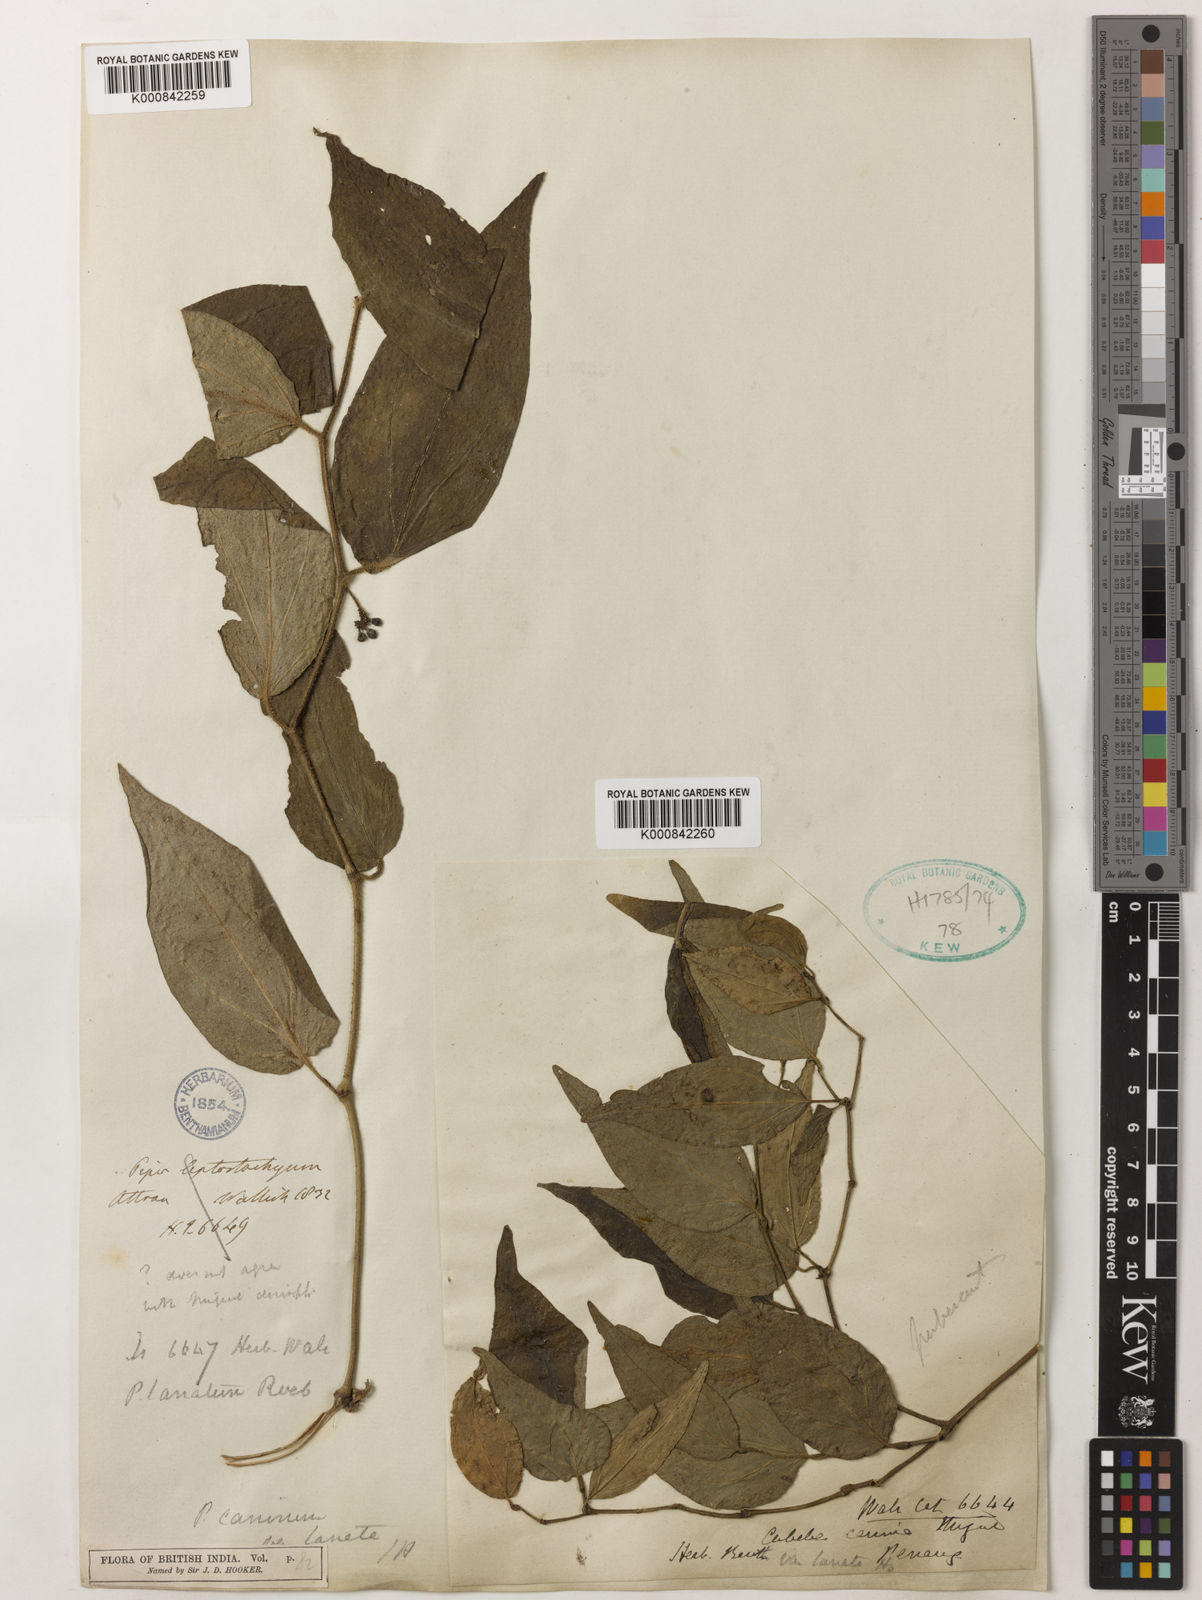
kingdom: Plantae
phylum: Tracheophyta
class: Magnoliopsida
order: Piperales
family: Piperaceae
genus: Piper
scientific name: Piper lanatum
